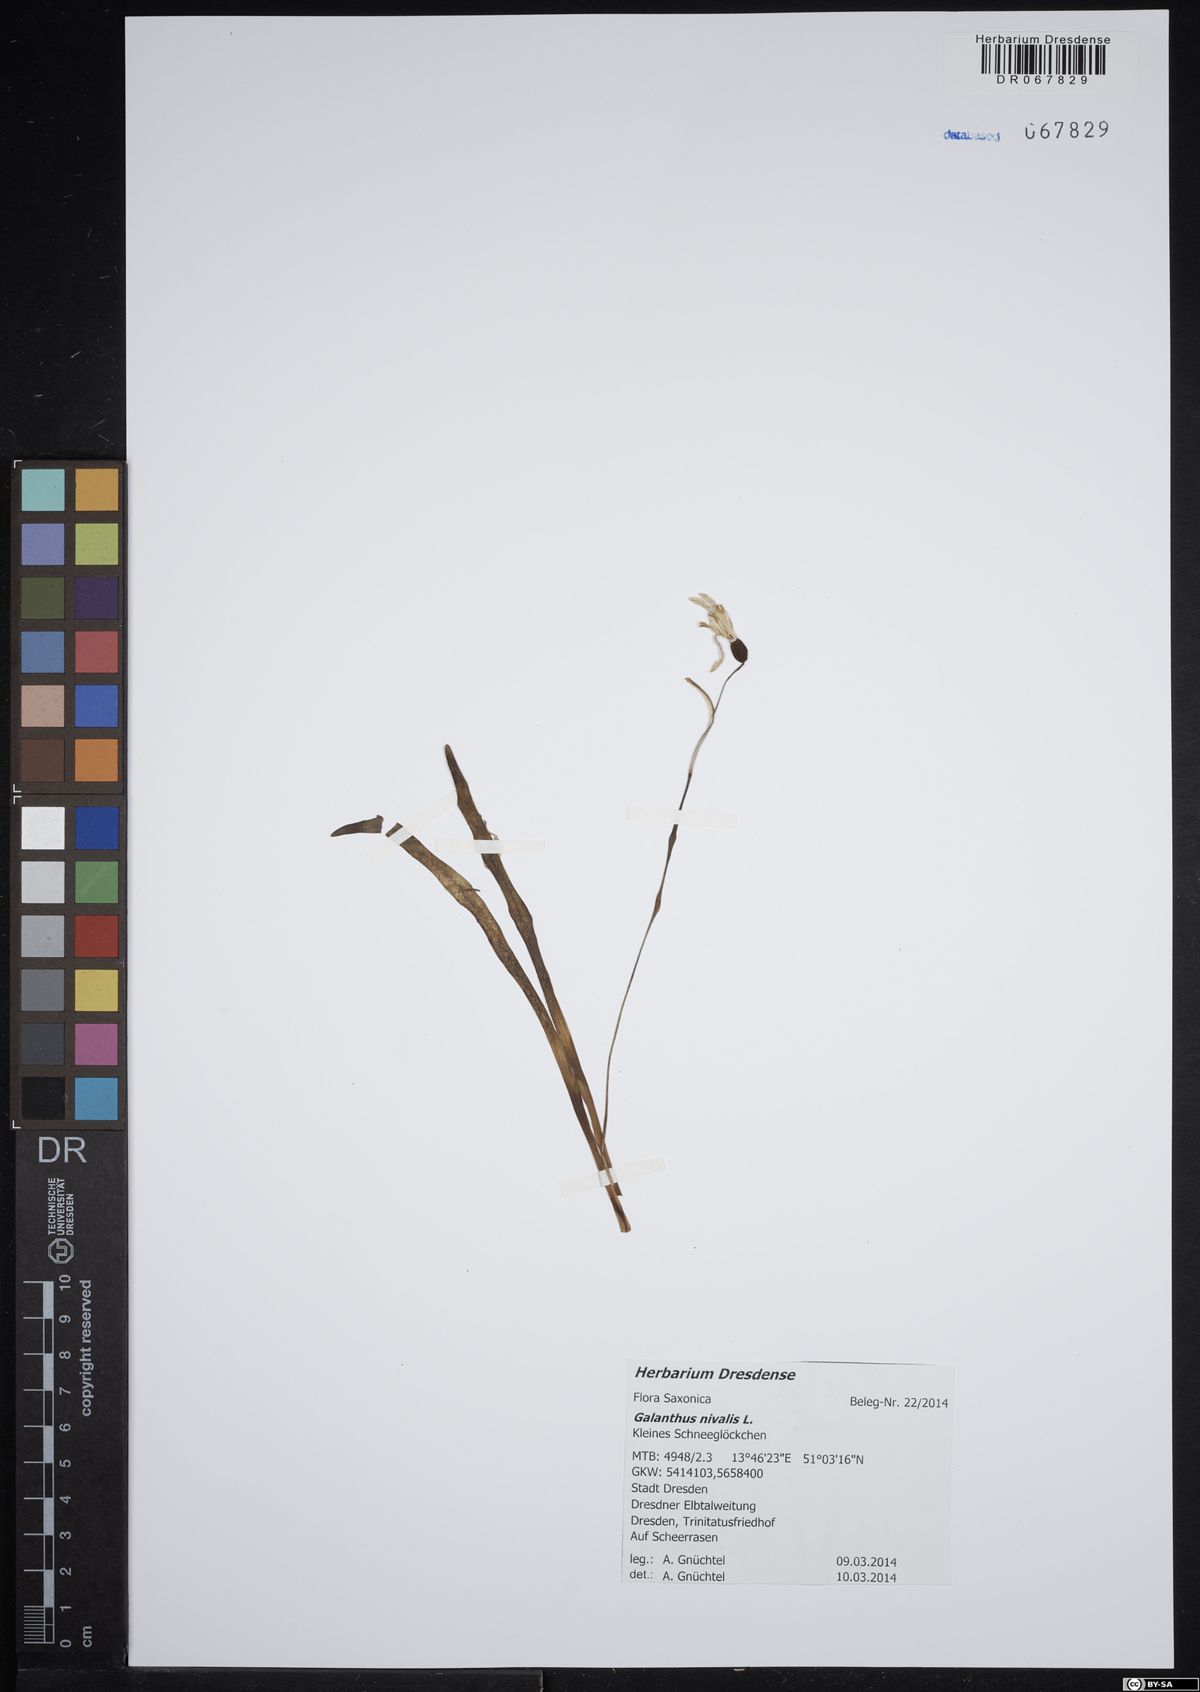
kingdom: Plantae
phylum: Tracheophyta
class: Liliopsida
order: Asparagales
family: Amaryllidaceae
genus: Galanthus
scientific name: Galanthus nivalis
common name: Snowdrop
